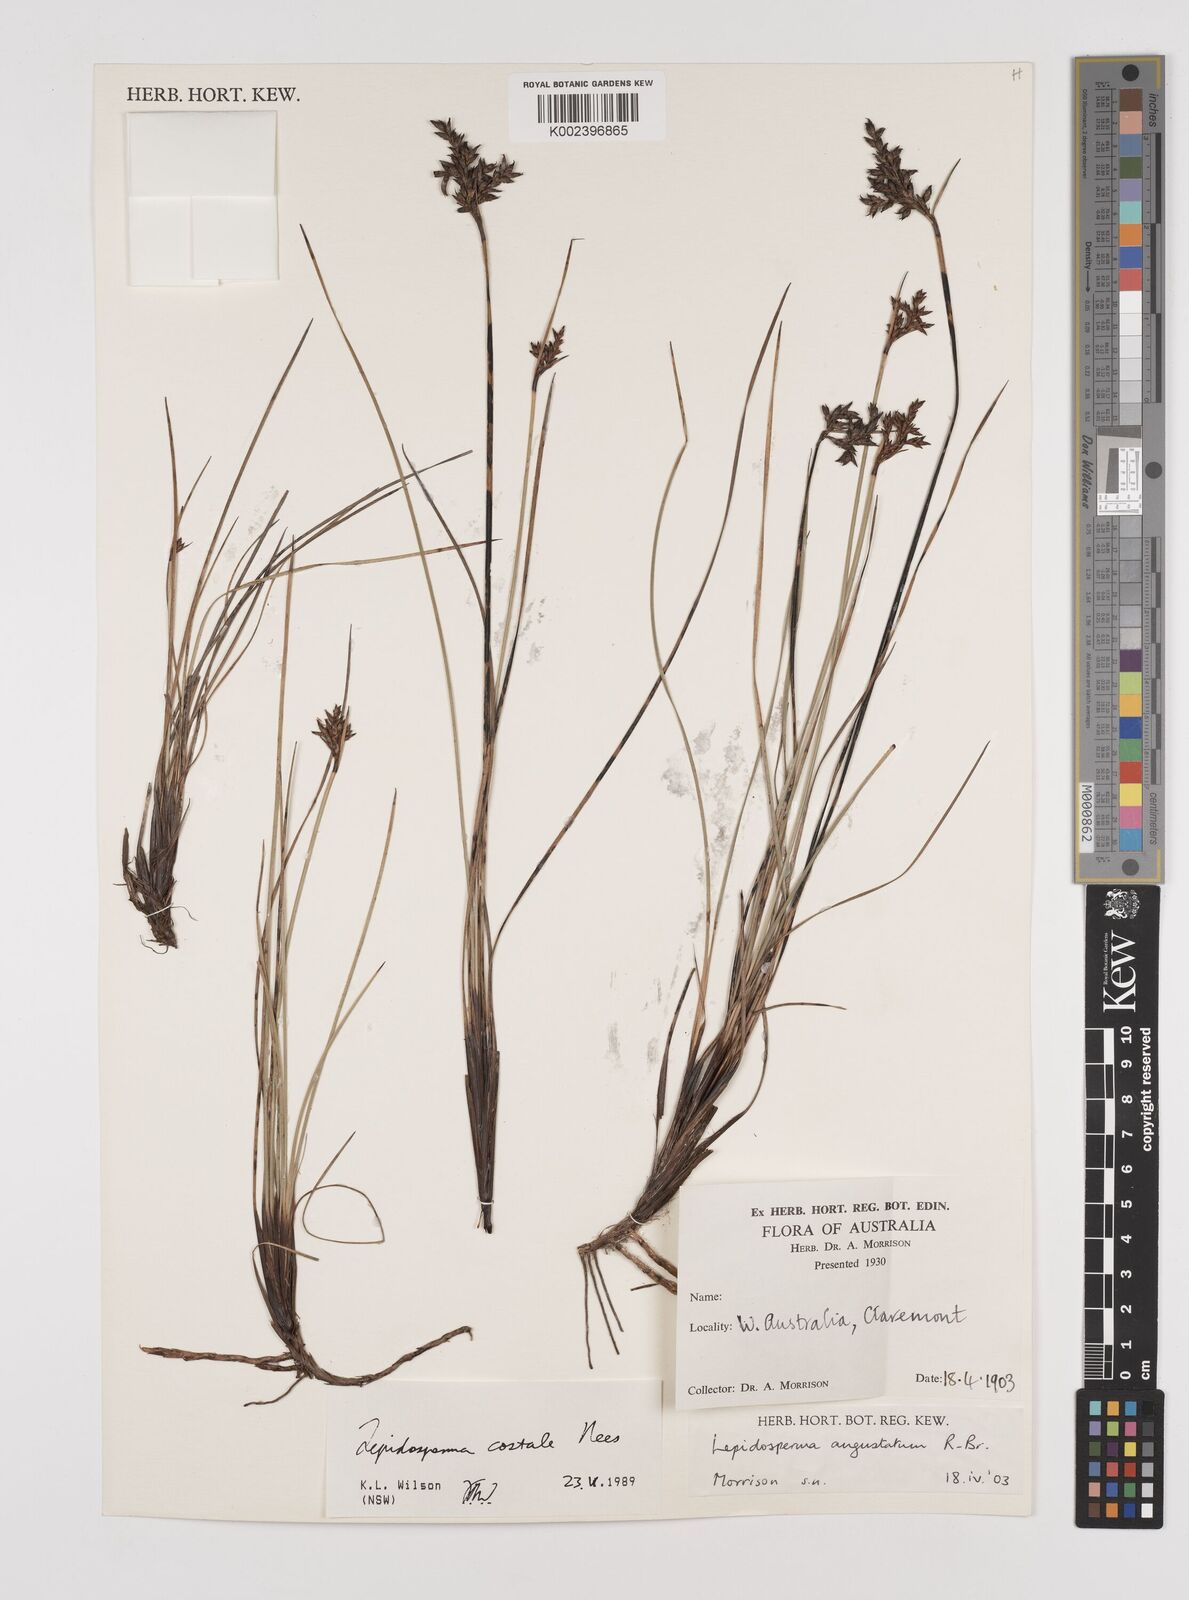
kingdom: Plantae
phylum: Tracheophyta
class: Liliopsida
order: Poales
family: Cyperaceae
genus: Lepidosperma
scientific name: Lepidosperma costale
